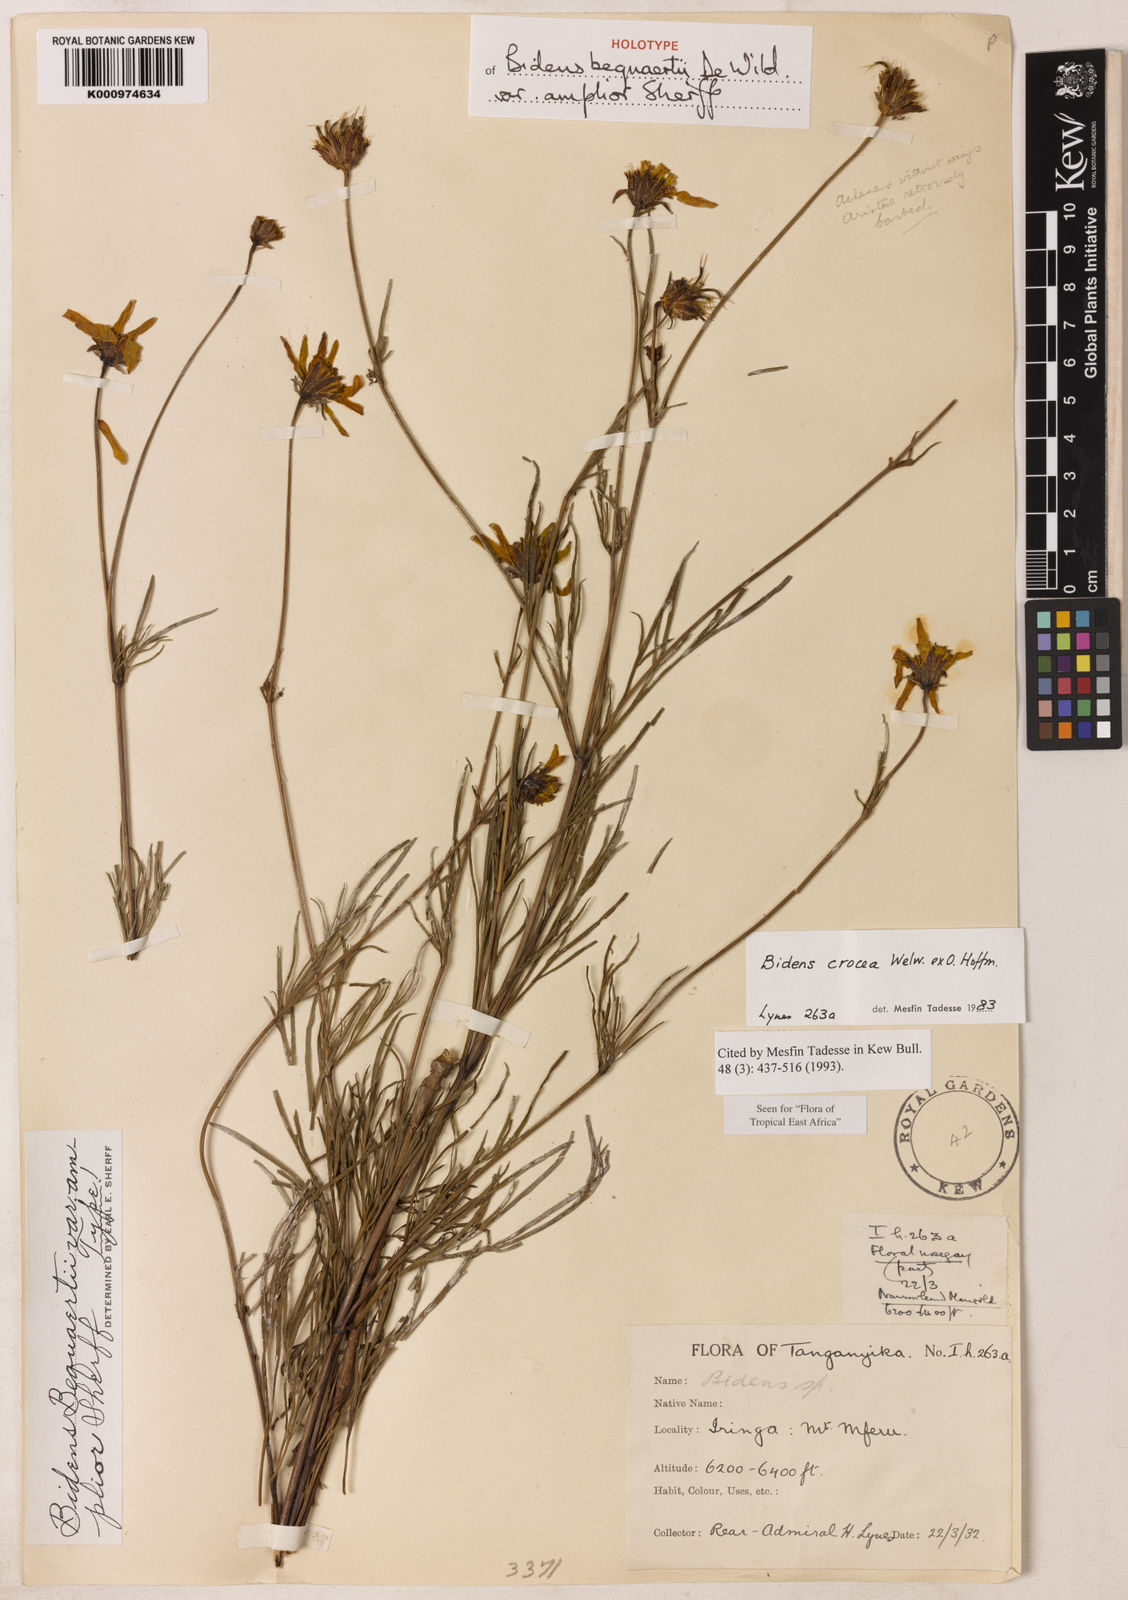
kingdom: Plantae
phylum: Tracheophyta
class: Magnoliopsida
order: Asterales
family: Asteraceae
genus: Bidens
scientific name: Bidens crocea
